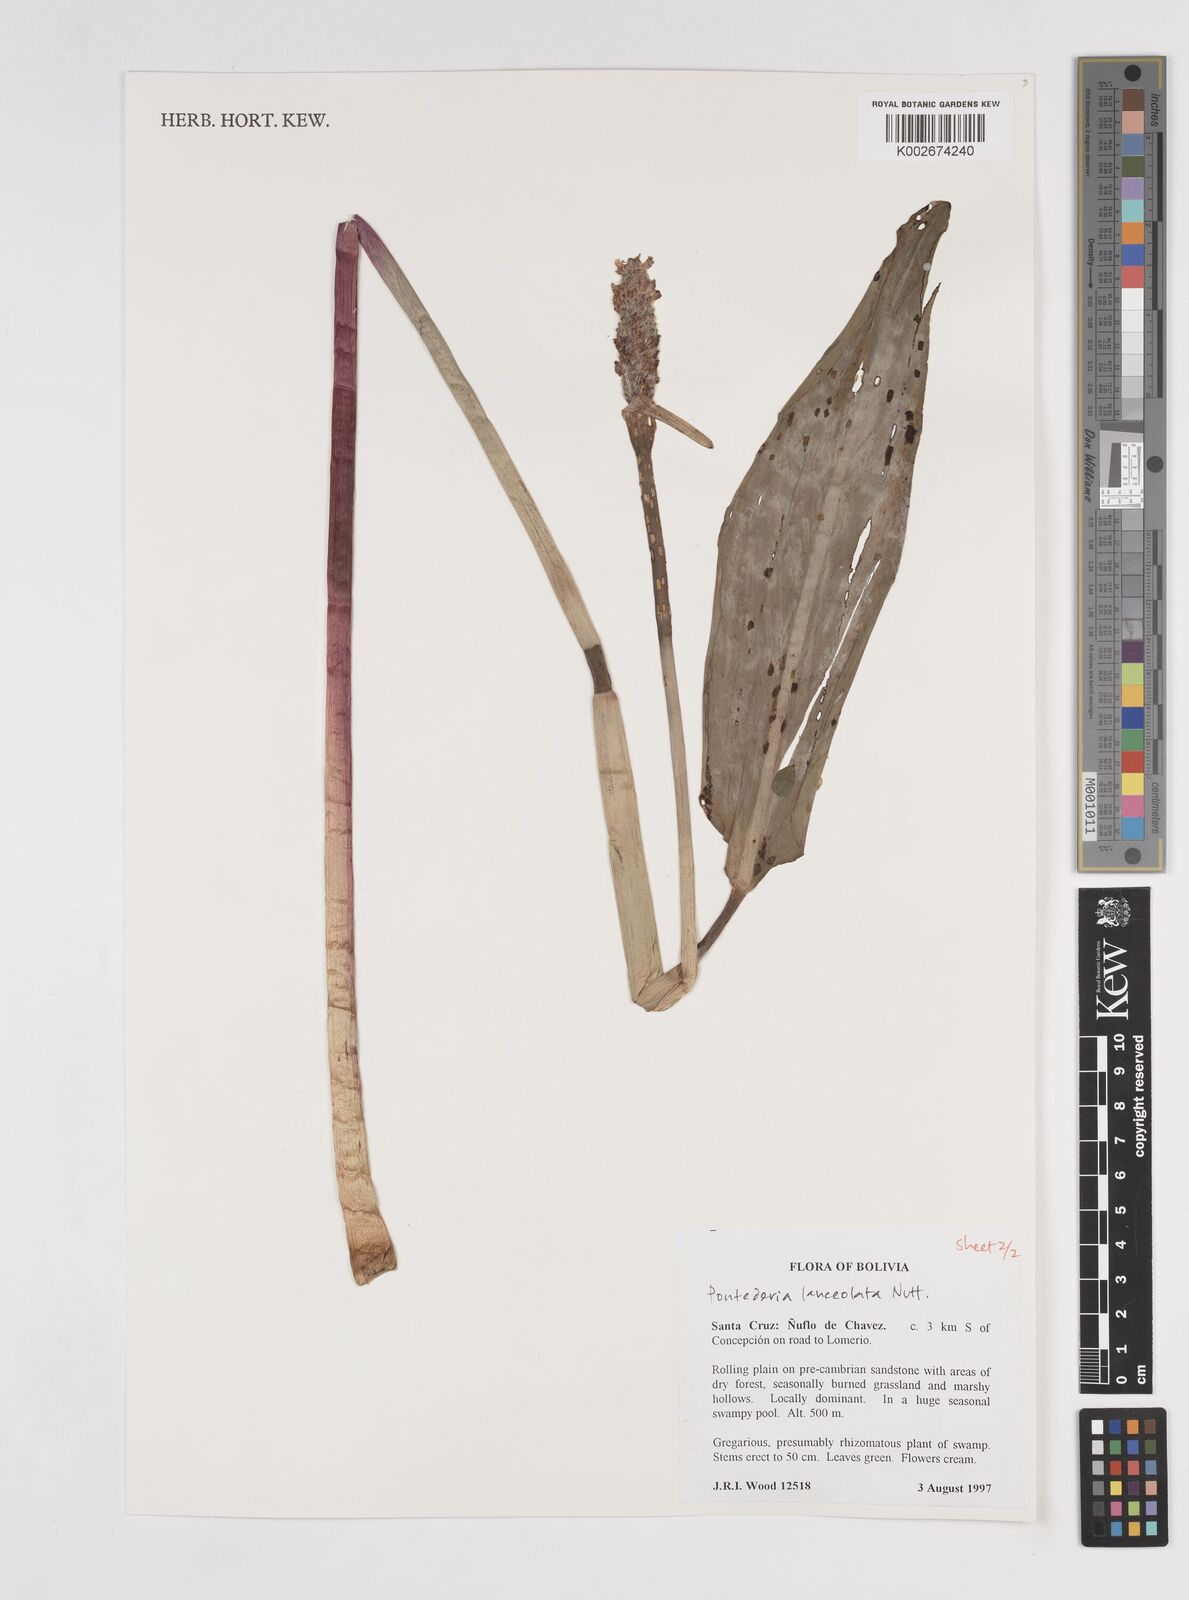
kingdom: Plantae
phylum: Tracheophyta
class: Liliopsida
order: Commelinales
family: Pontederiaceae
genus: Pontederia
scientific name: Pontederia
